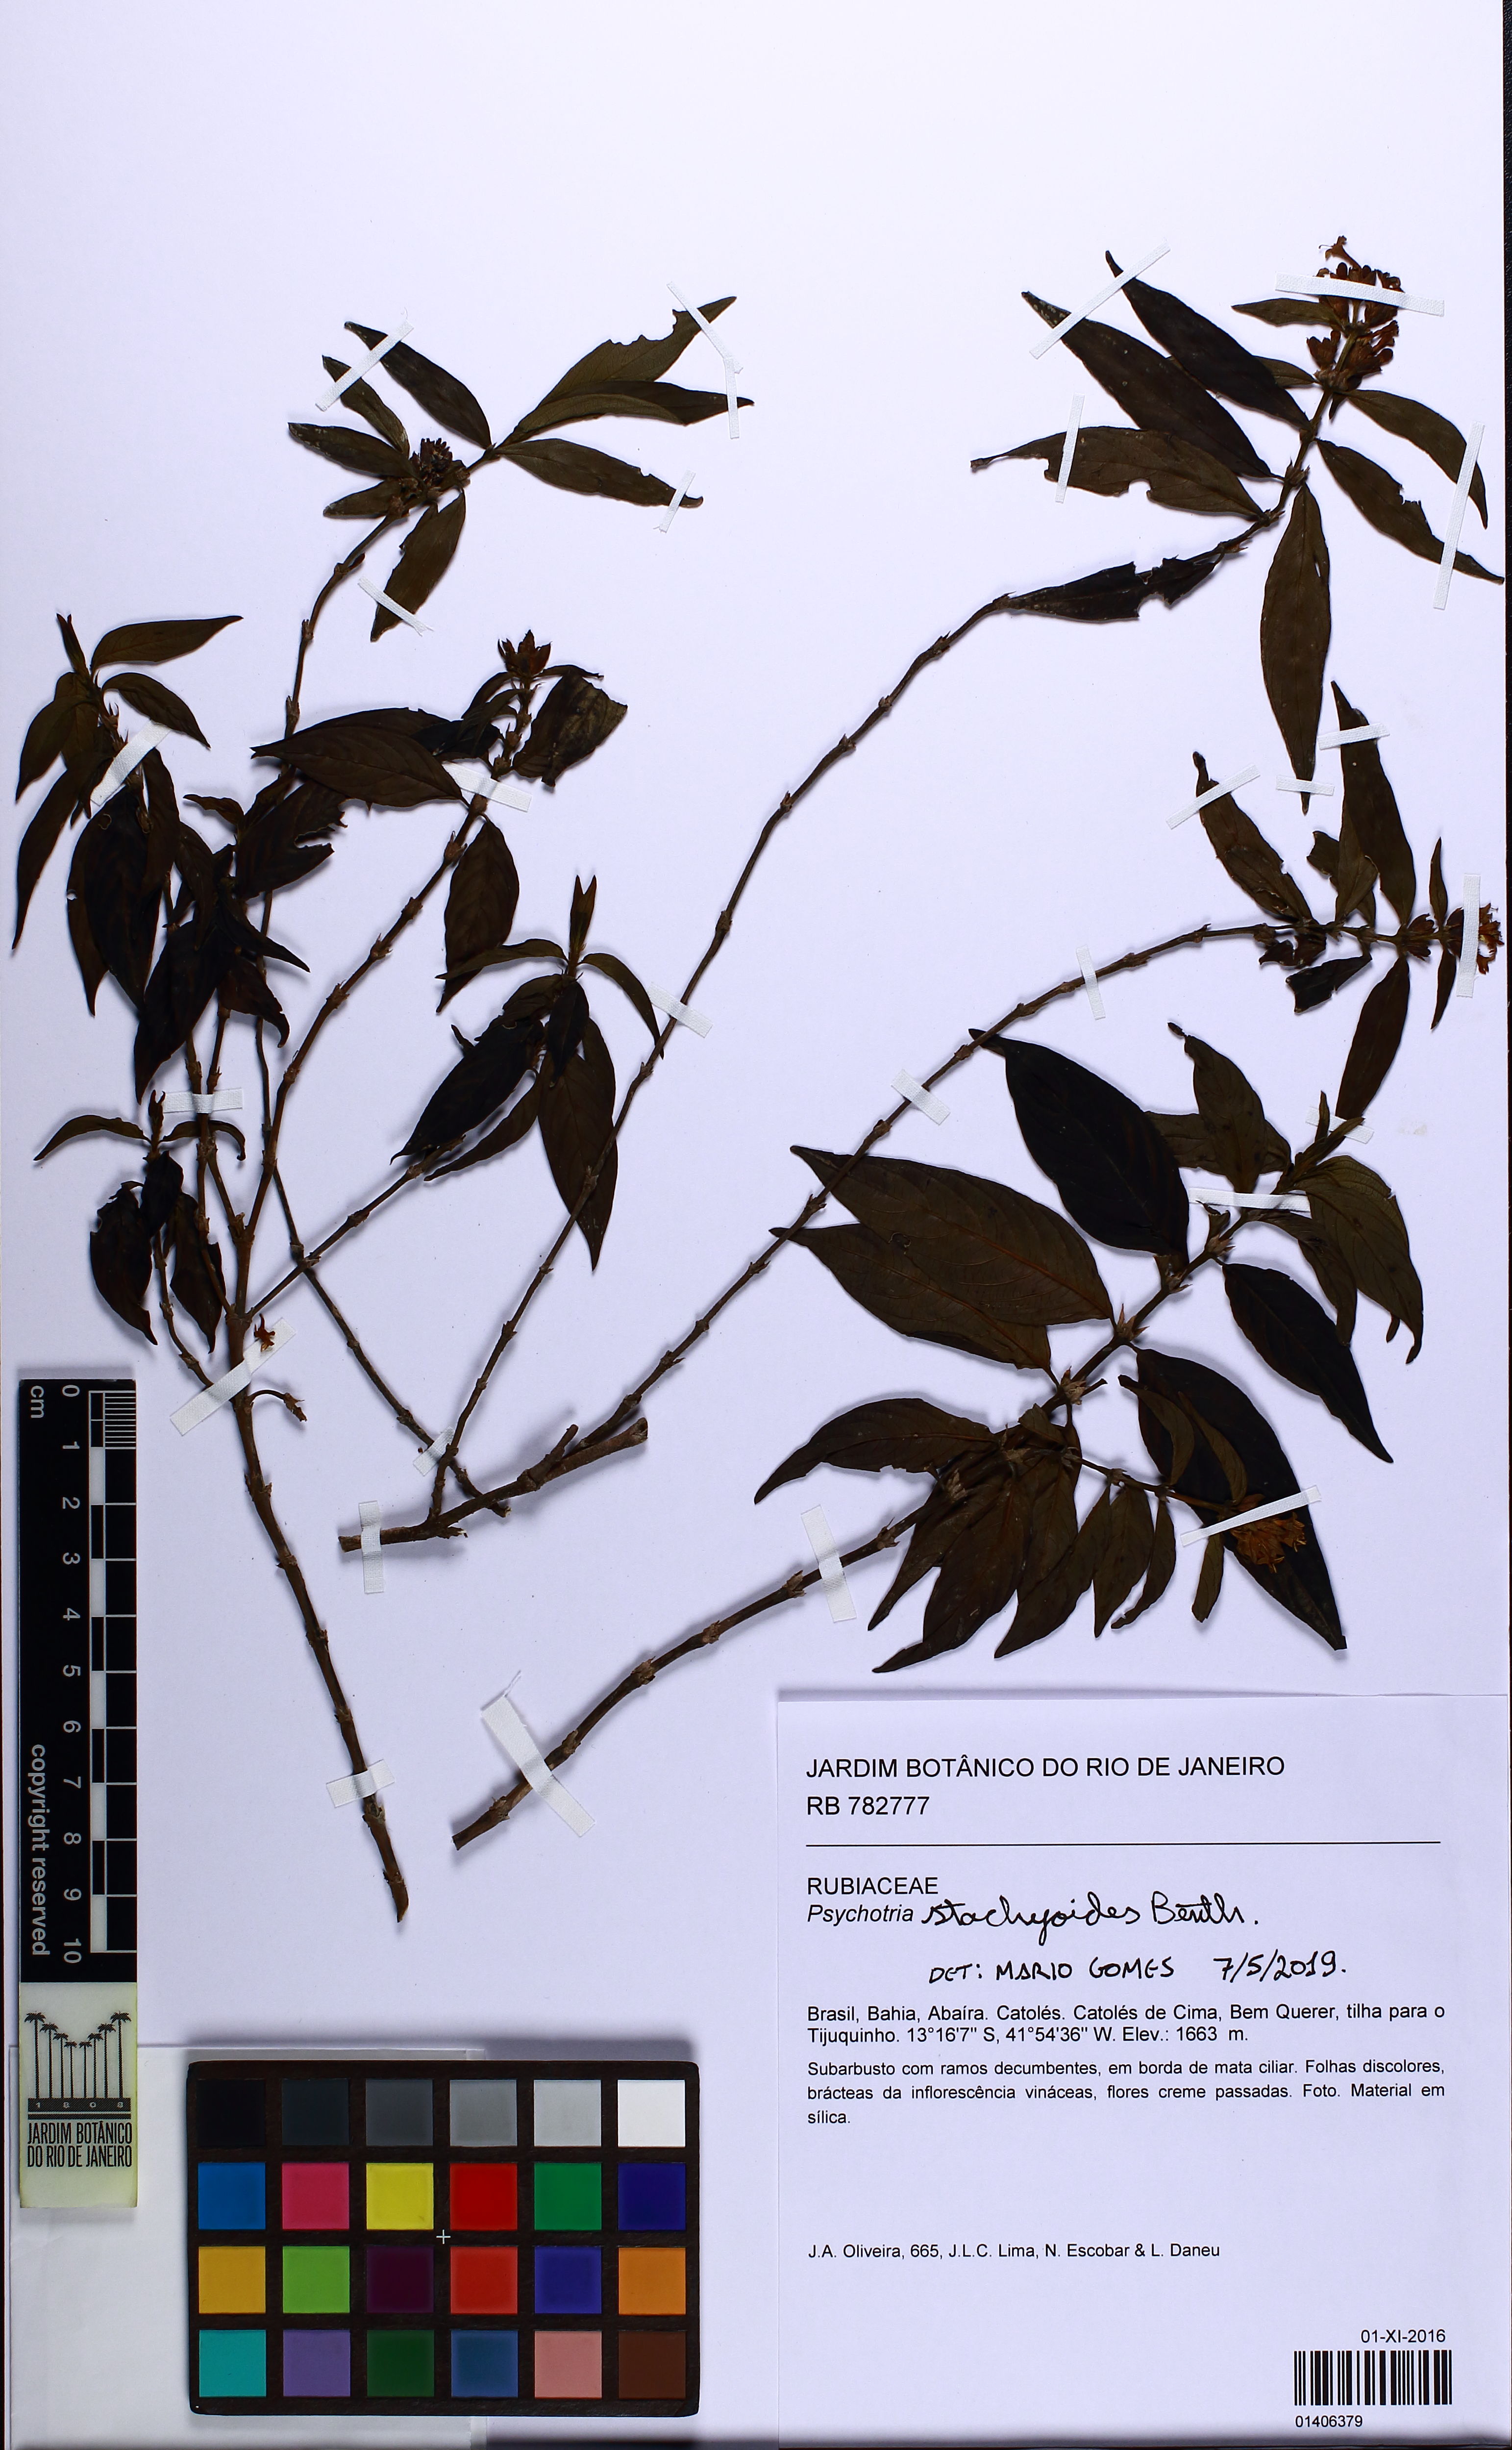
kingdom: Plantae
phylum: Tracheophyta
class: Magnoliopsida
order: Gentianales
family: Rubiaceae
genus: Psychotria
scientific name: Psychotria stachyoides
